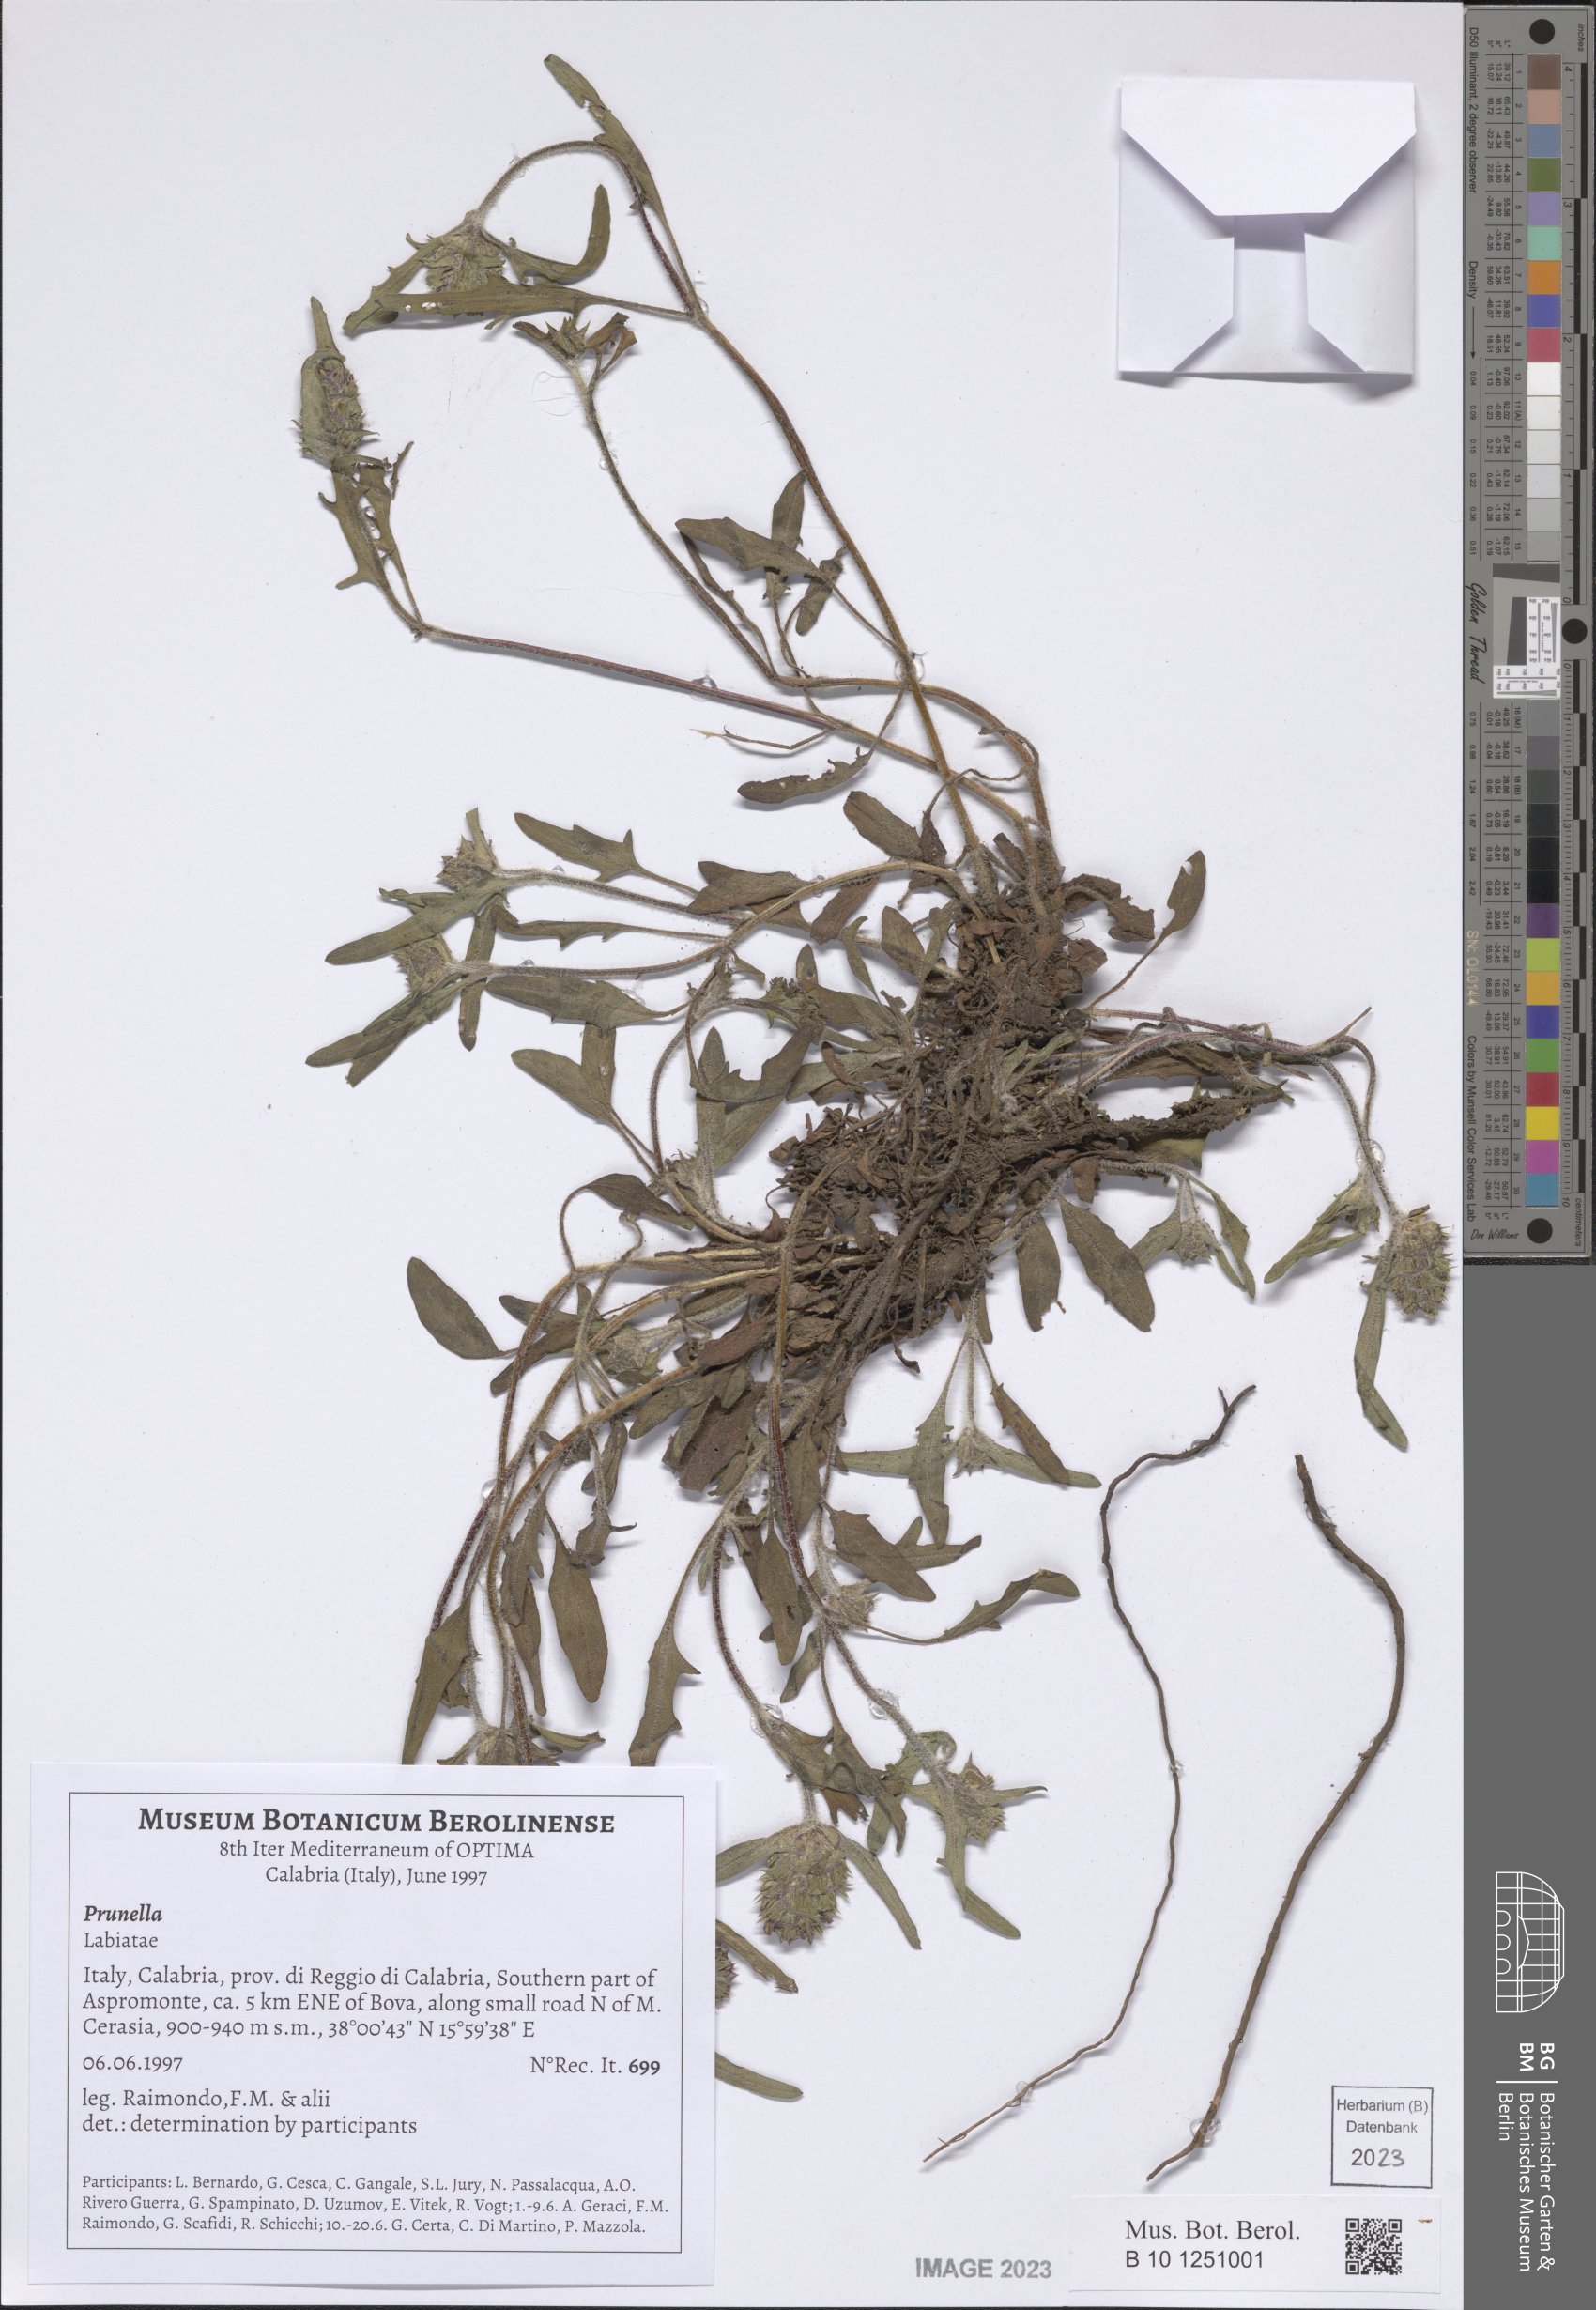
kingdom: Plantae
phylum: Tracheophyta
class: Magnoliopsida
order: Lamiales
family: Lamiaceae
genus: Prunella
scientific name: Prunella
